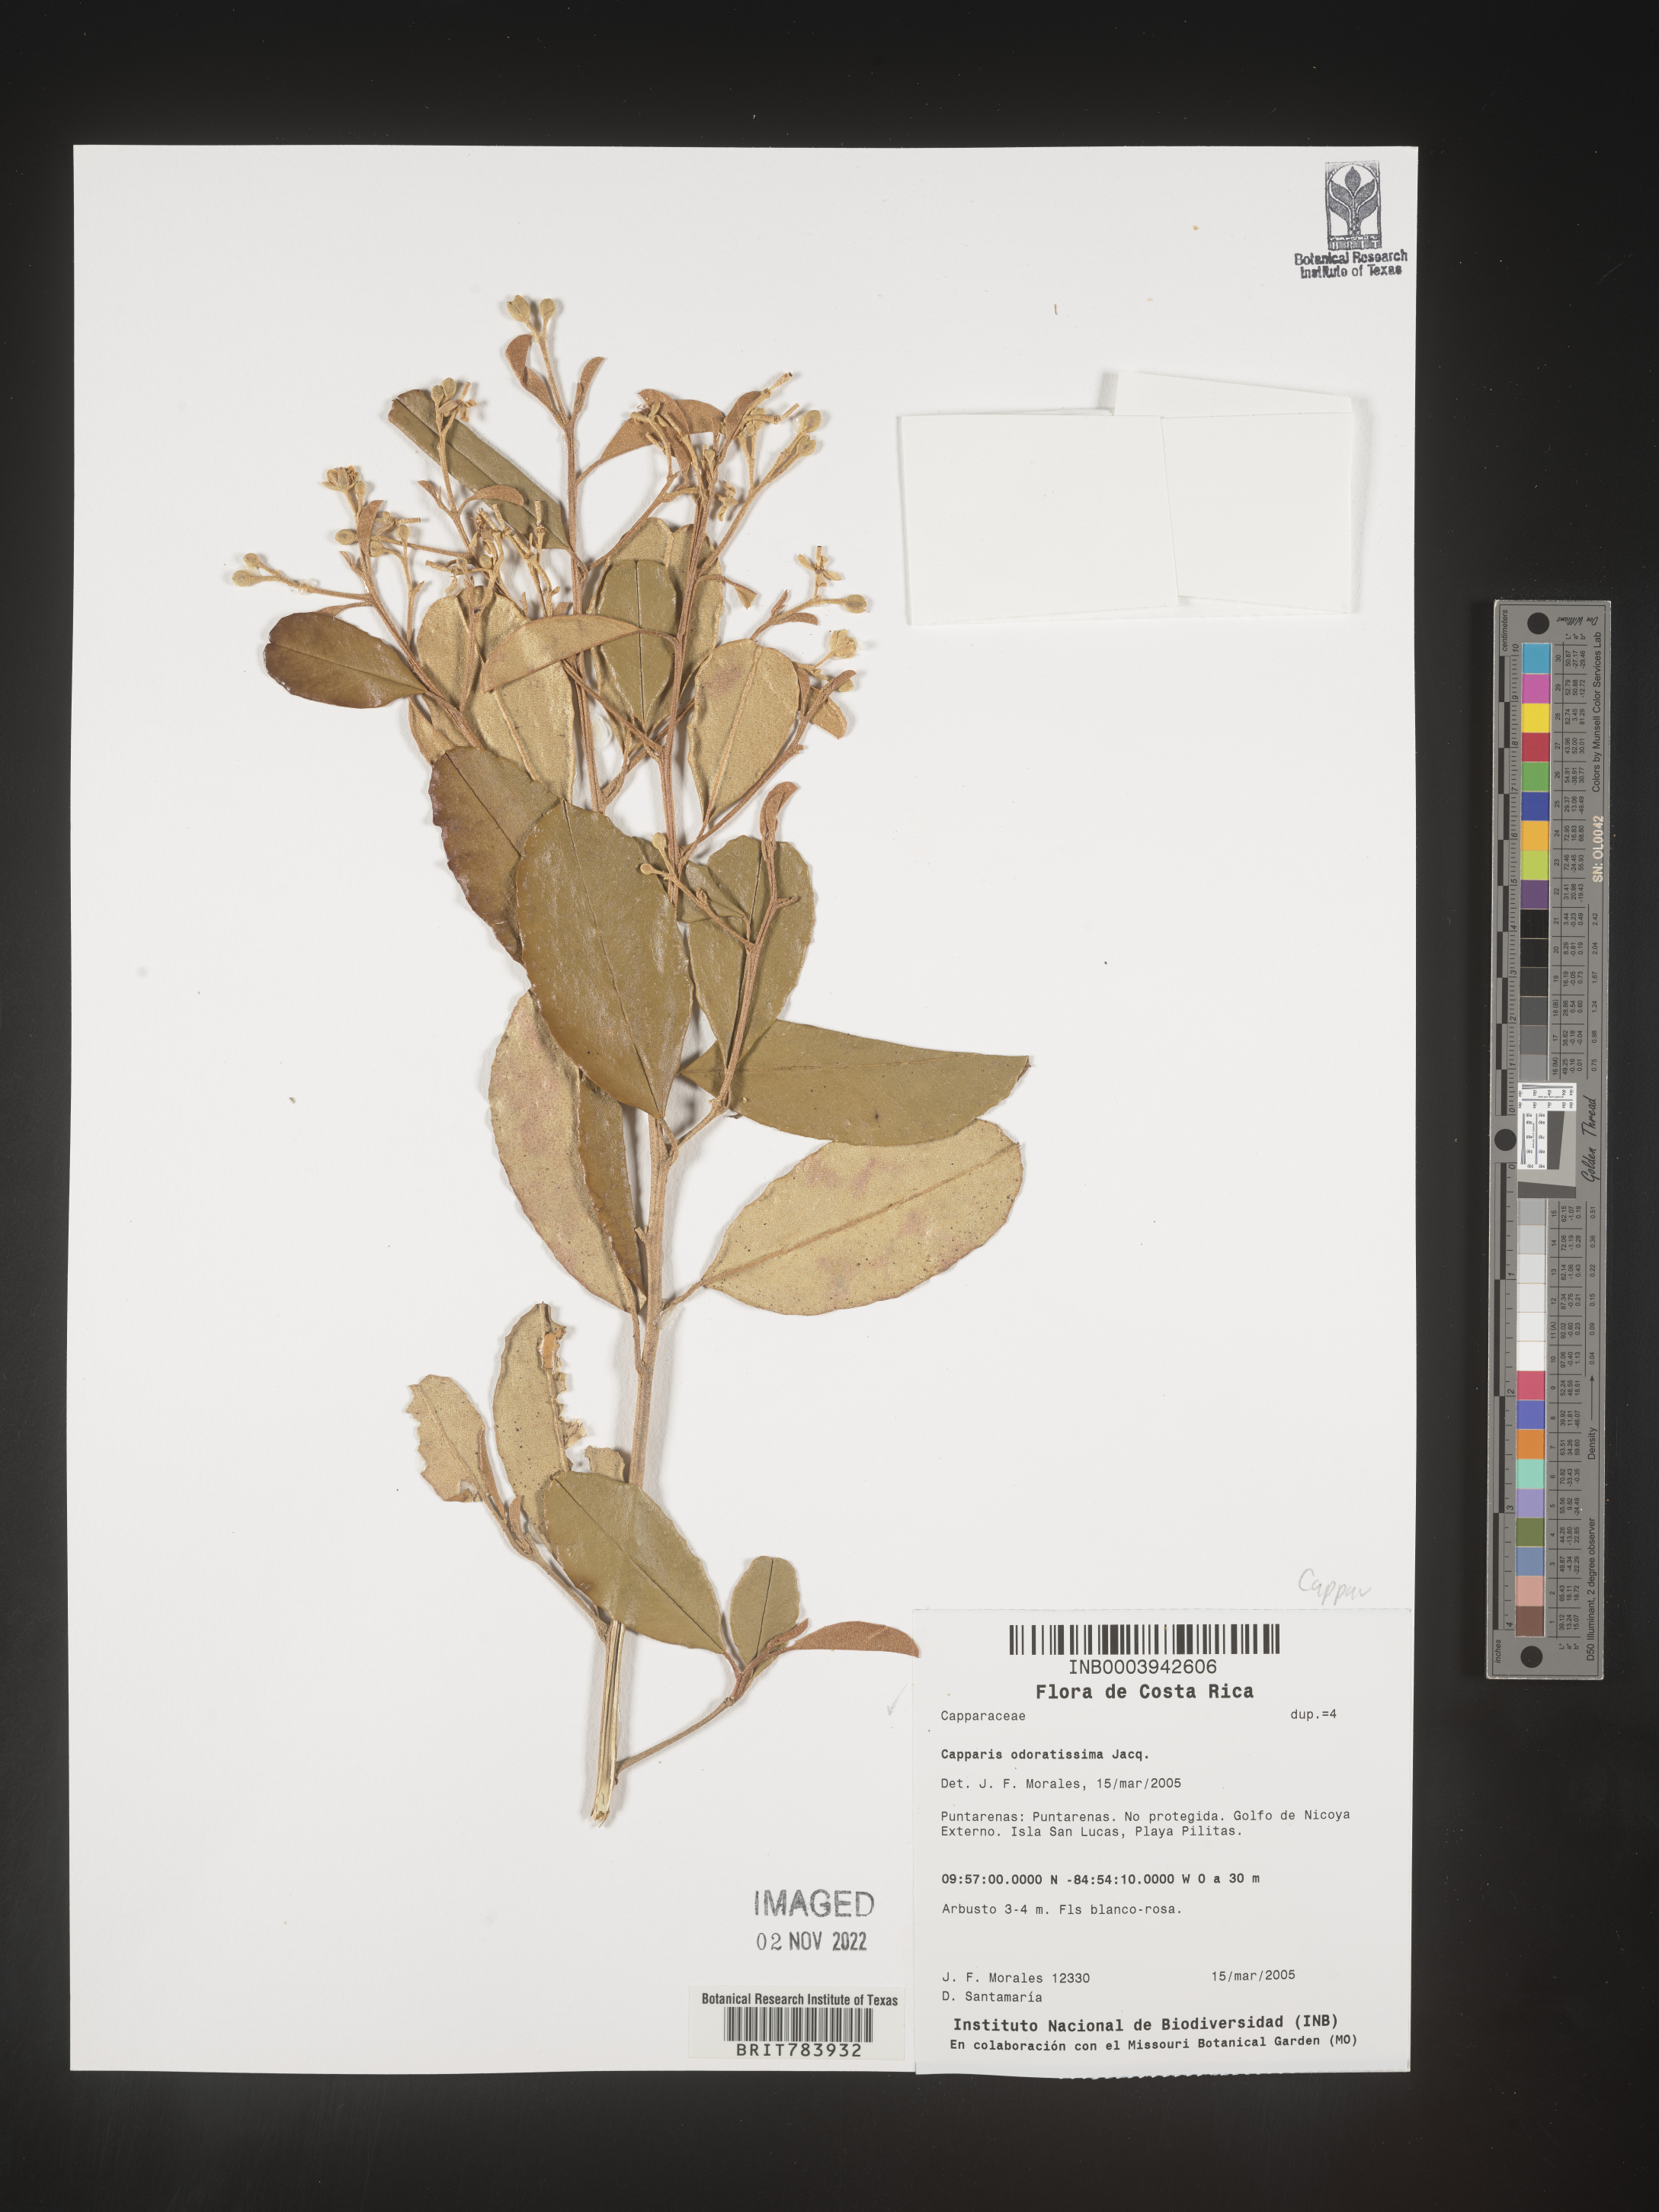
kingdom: Plantae
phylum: Tracheophyta
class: Magnoliopsida
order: Brassicales
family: Capparaceae
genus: Capparis
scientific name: Capparis
